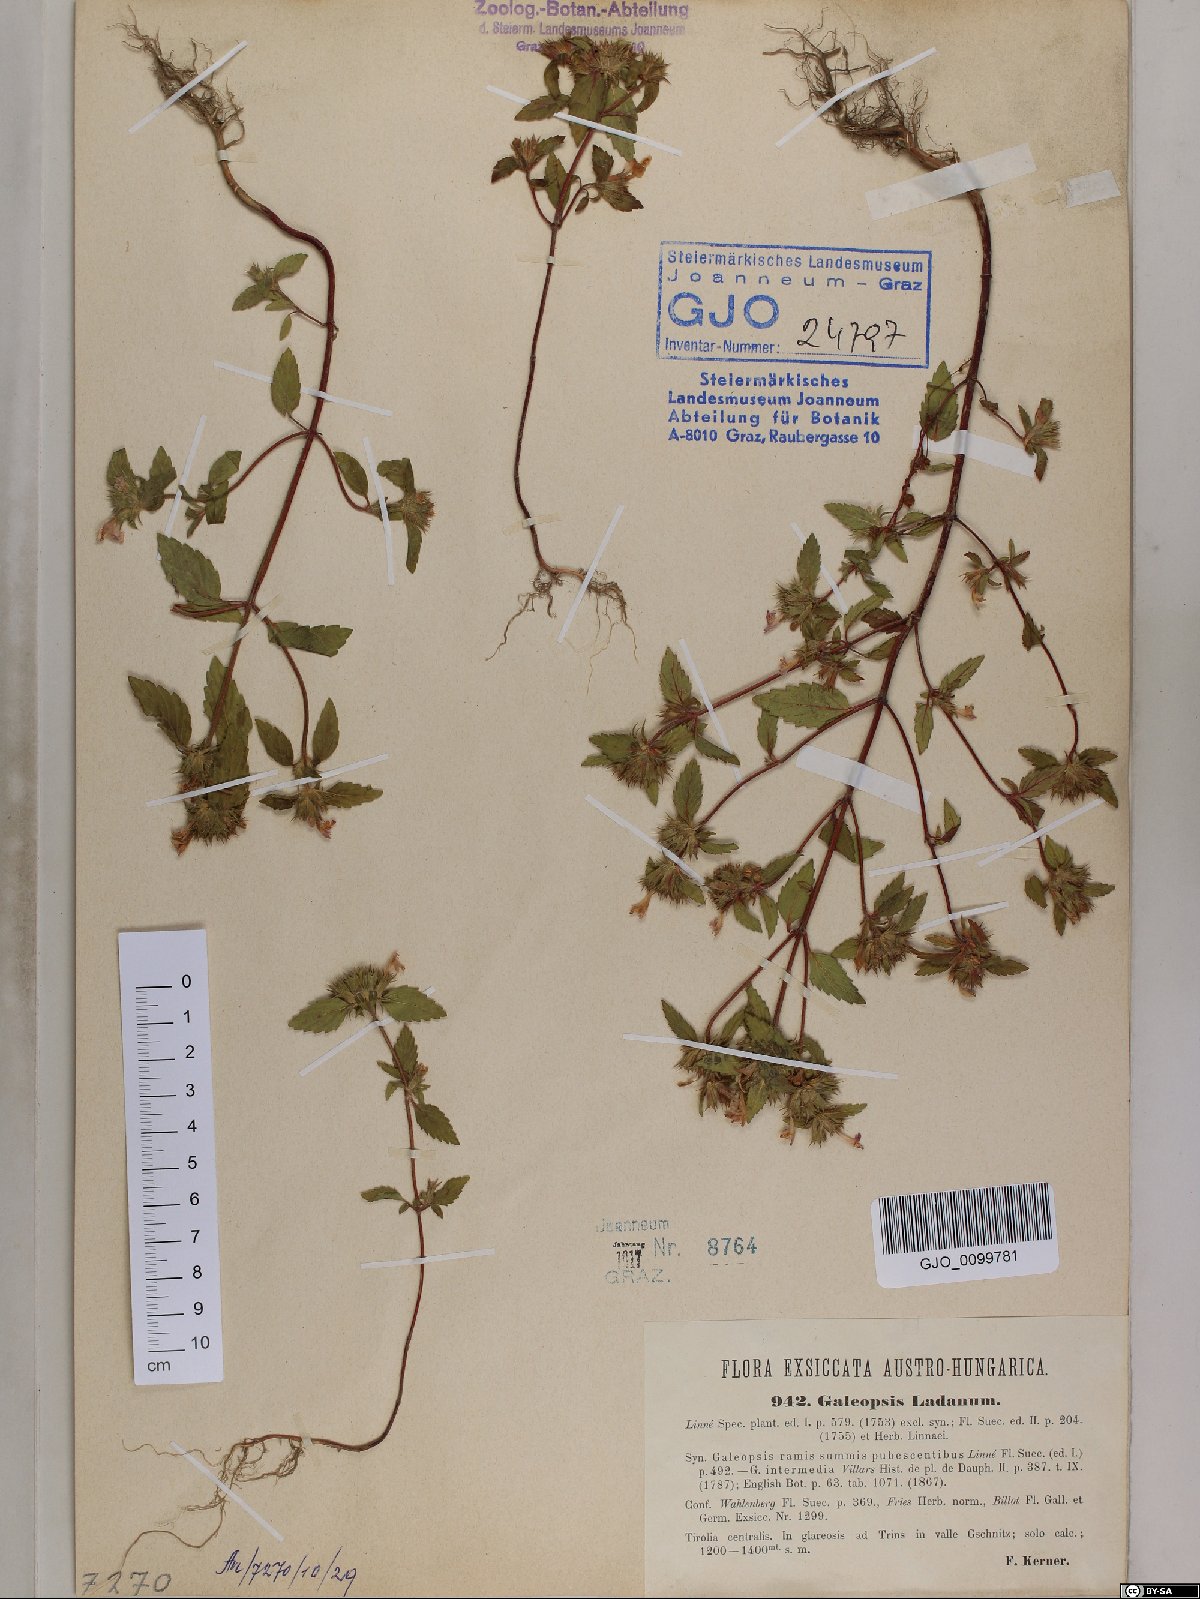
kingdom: Plantae
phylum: Tracheophyta
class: Magnoliopsida
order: Lamiales
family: Lamiaceae
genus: Galeopsis
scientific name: Galeopsis ladanum
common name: Broad-leaved hemp-nettle
